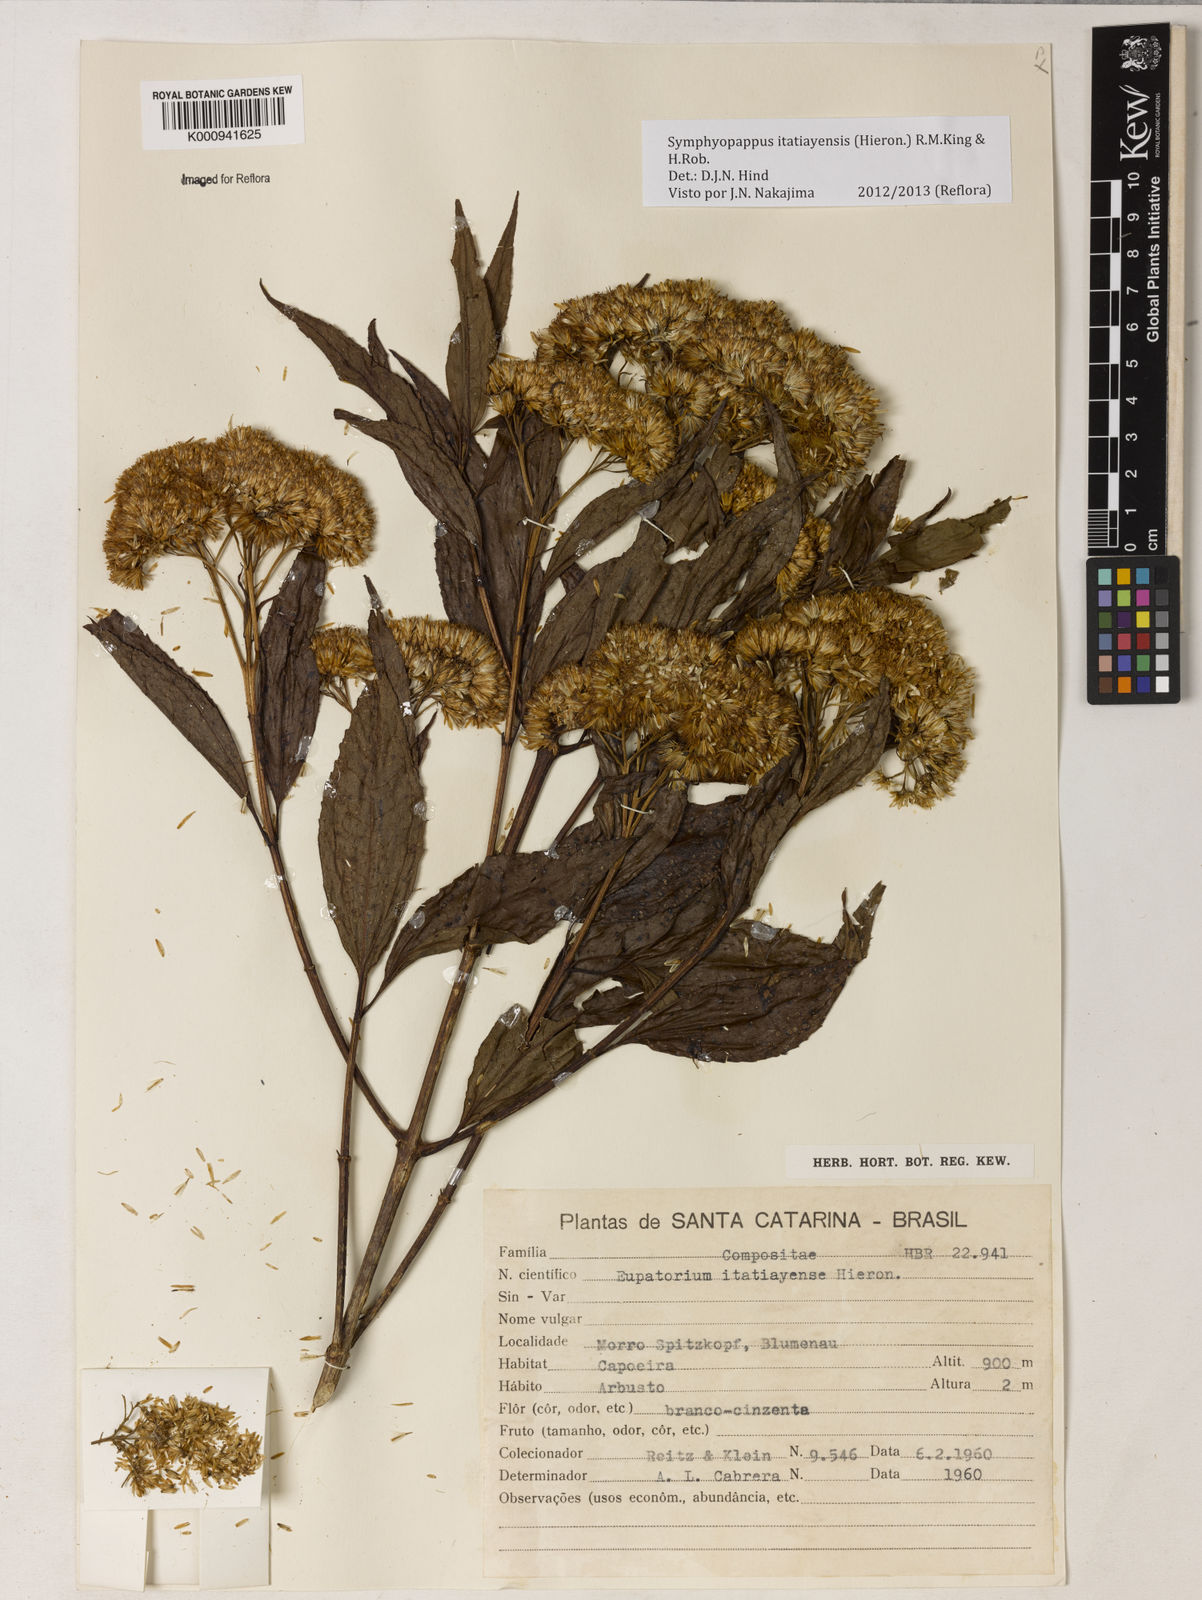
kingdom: Plantae
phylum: Tracheophyta
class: Magnoliopsida
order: Asterales
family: Asteraceae
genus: Symphyopappus
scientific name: Symphyopappus itatiayensis
